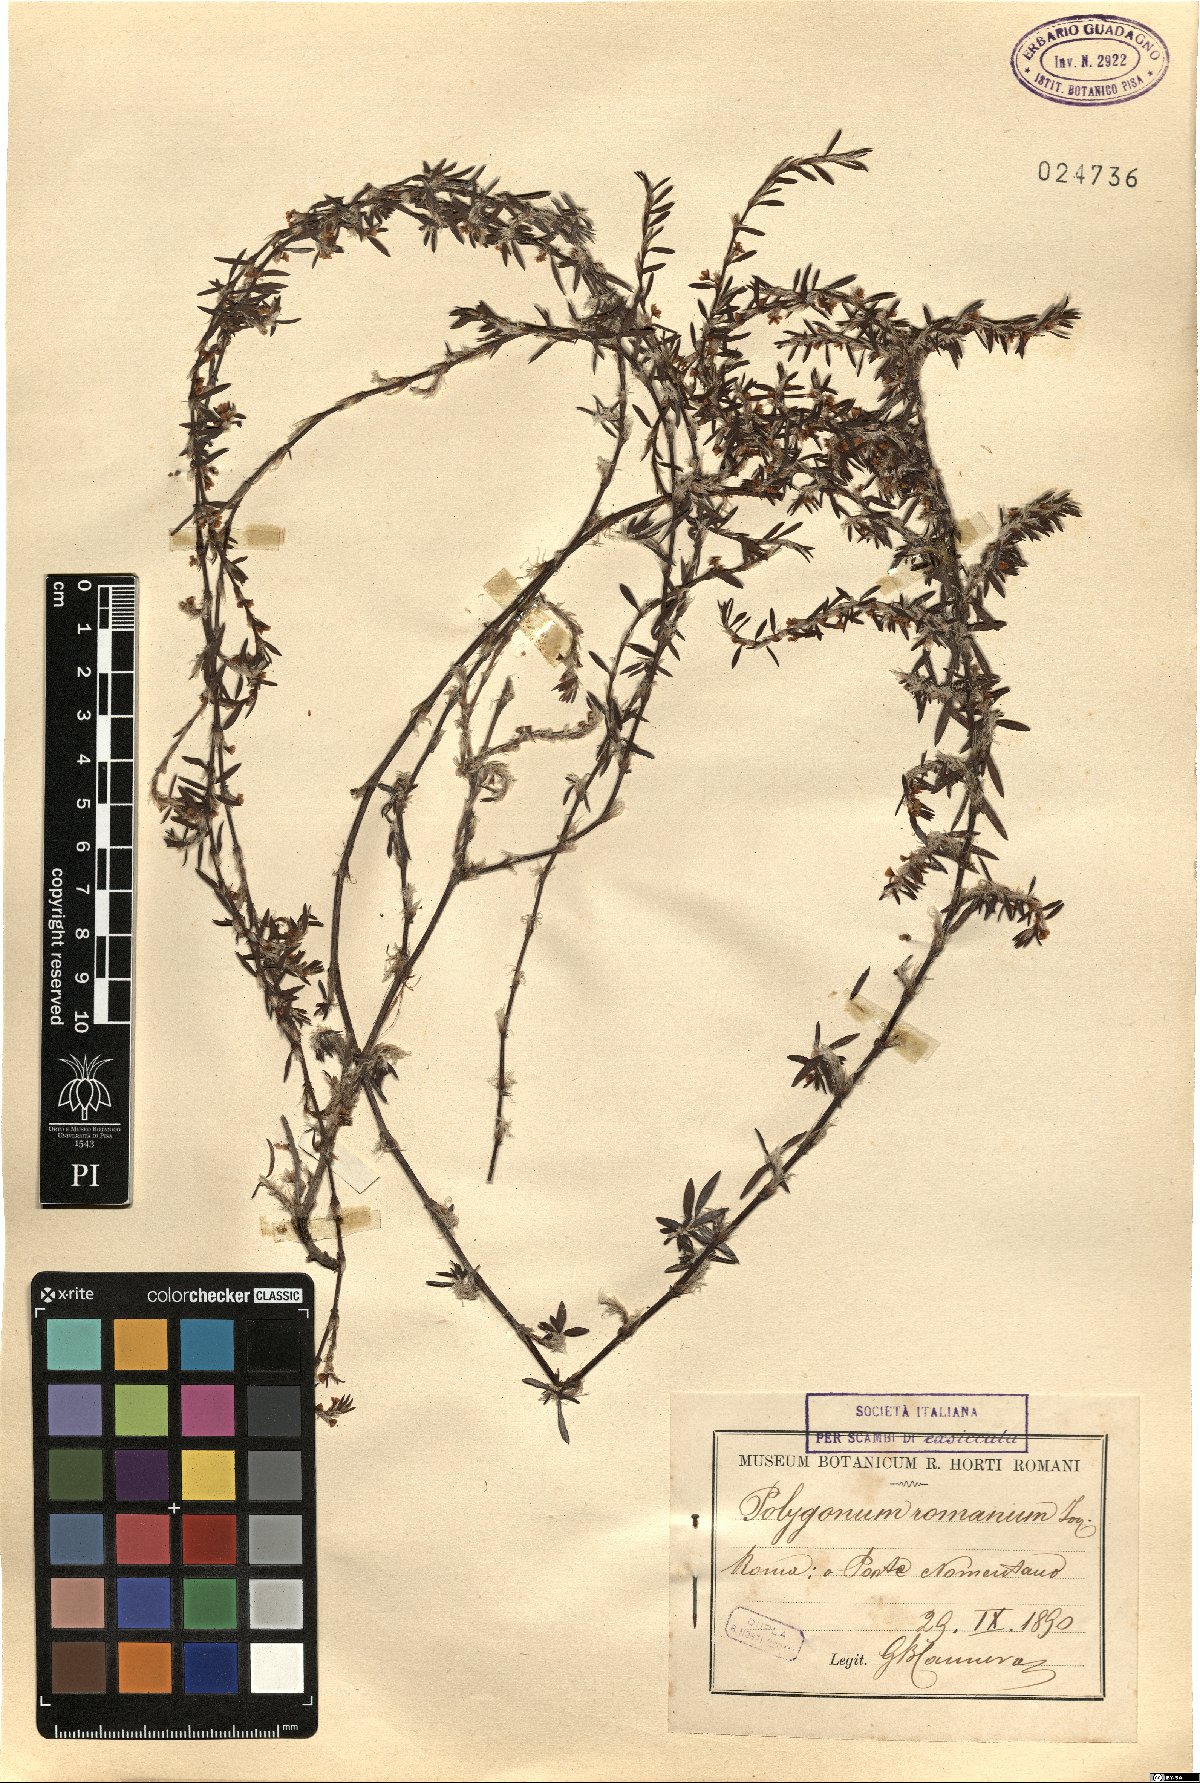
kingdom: Plantae
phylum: Tracheophyta
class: Magnoliopsida
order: Caryophyllales
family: Polygonaceae
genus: Polygonum
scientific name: Polygonum romanum
